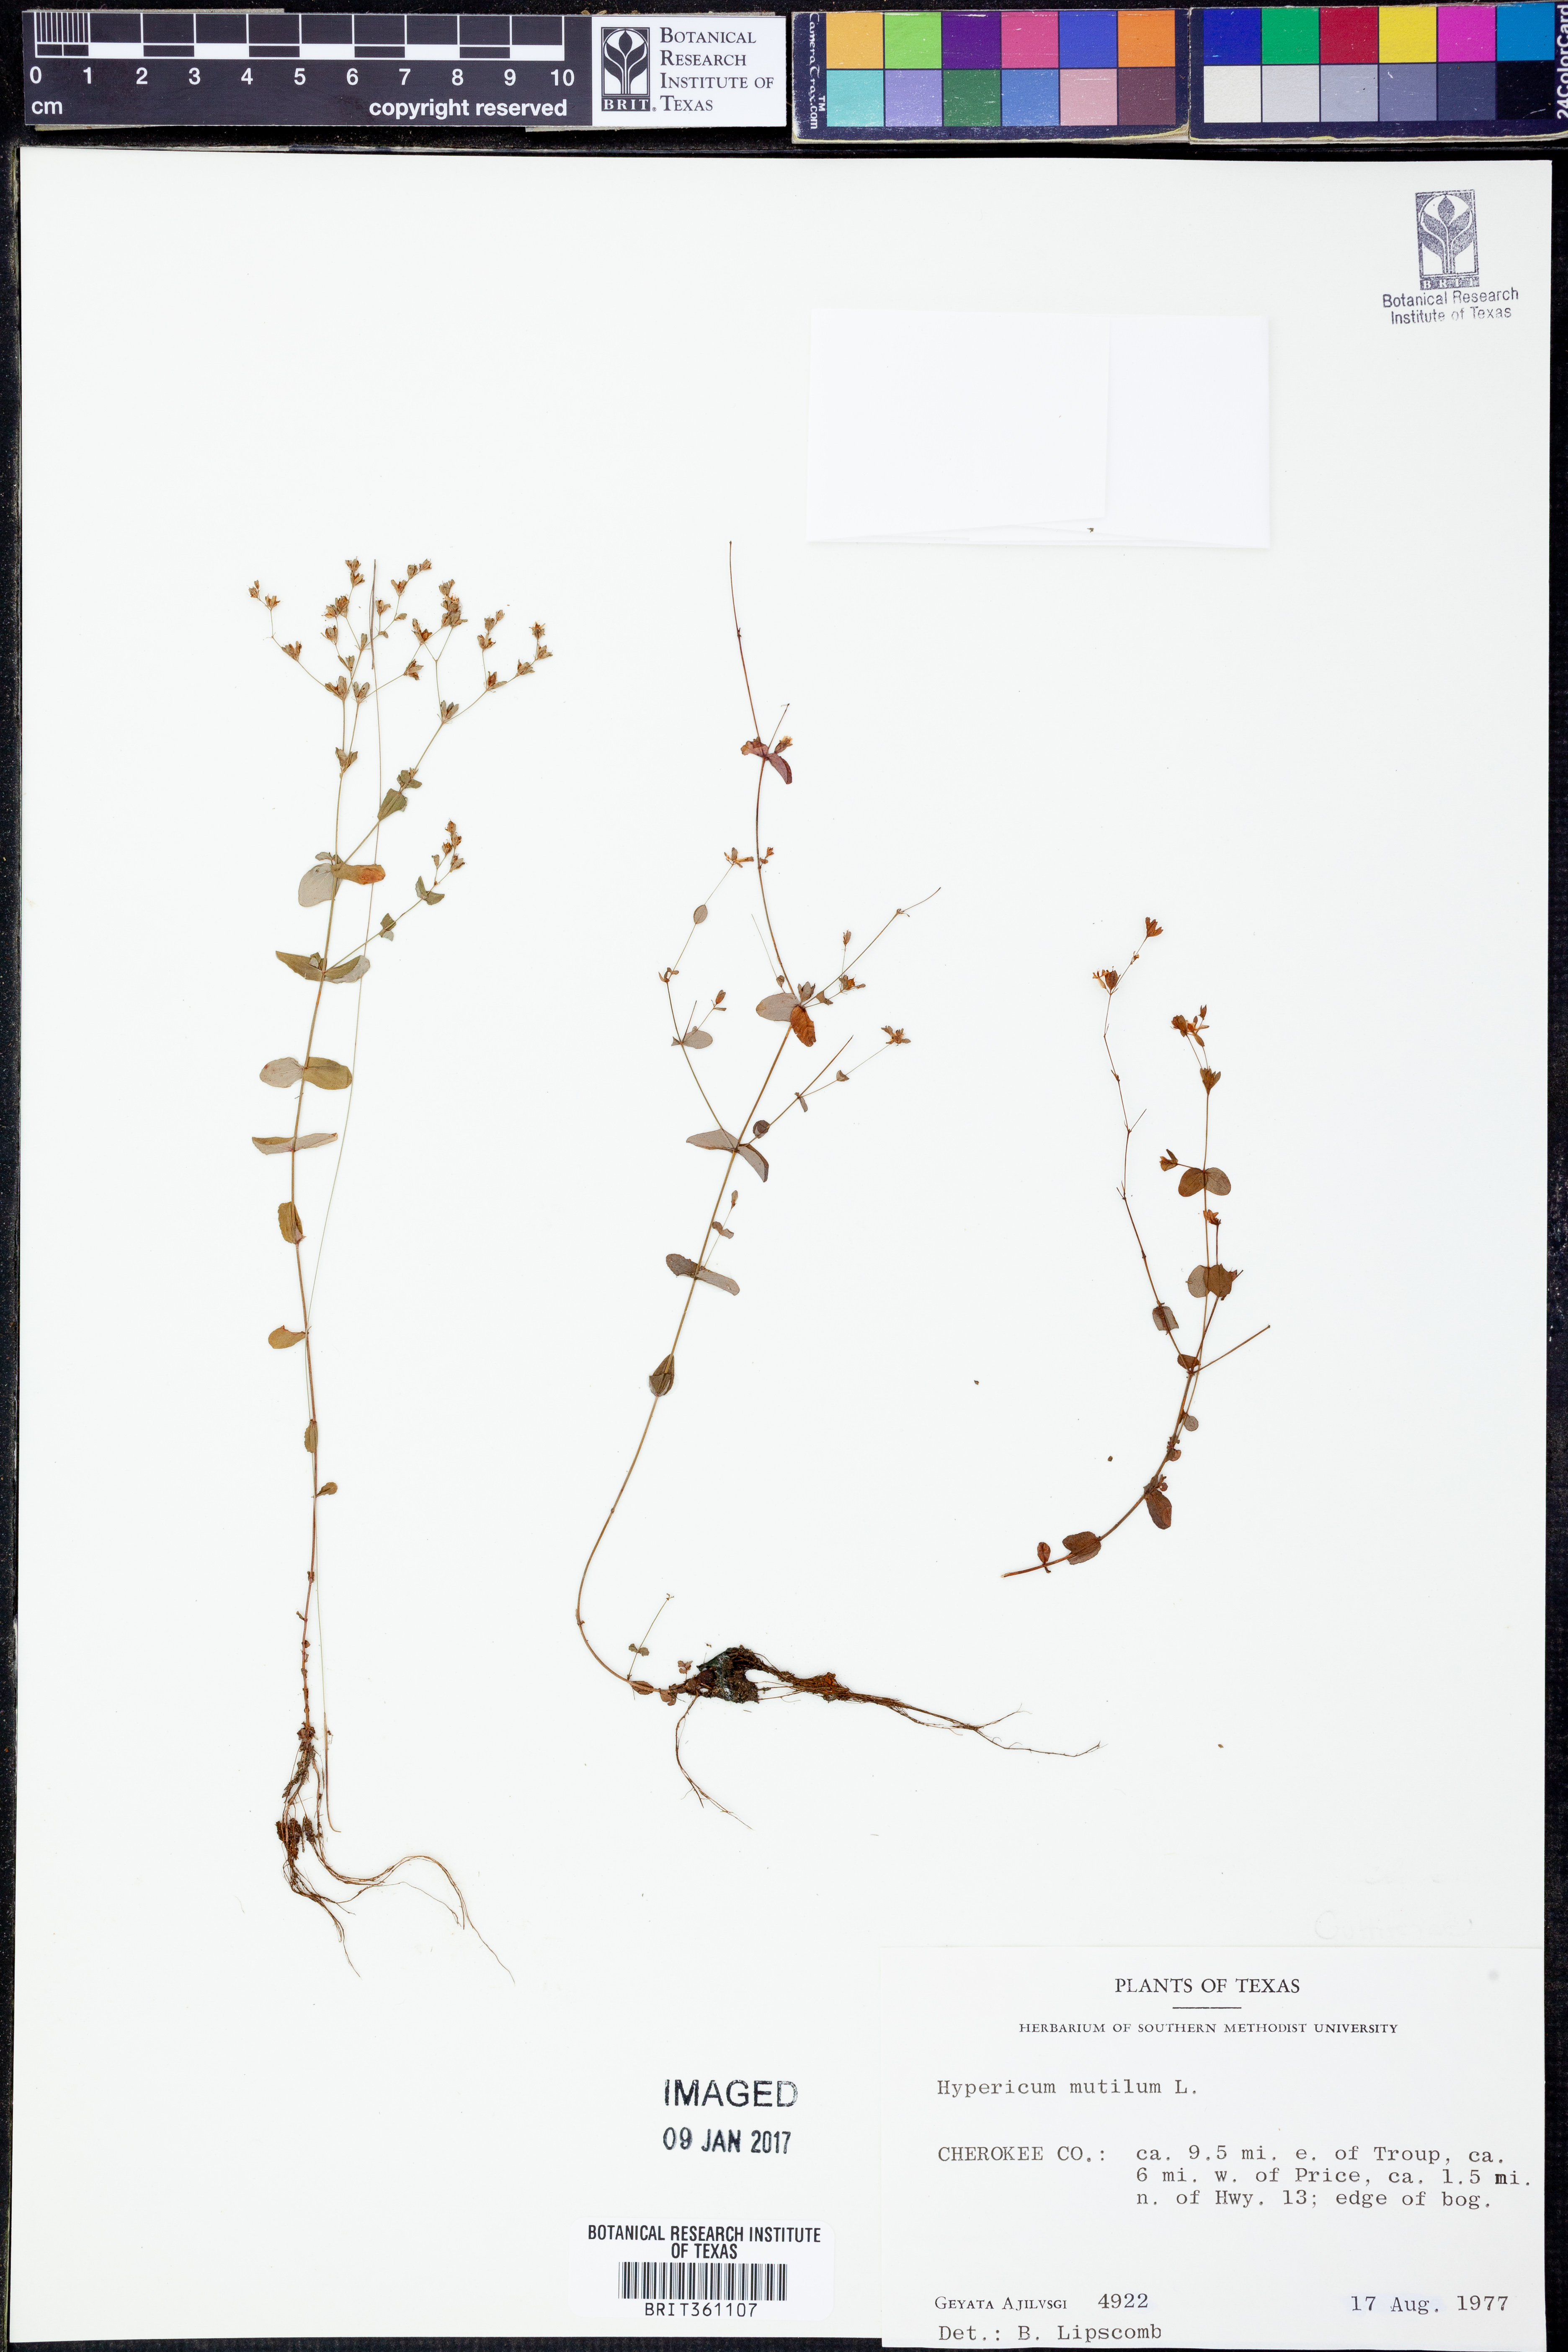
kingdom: Plantae
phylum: Tracheophyta
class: Magnoliopsida
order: Malpighiales
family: Hypericaceae
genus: Hypericum
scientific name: Hypericum mutilum
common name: Dwarf st. john's-wort
